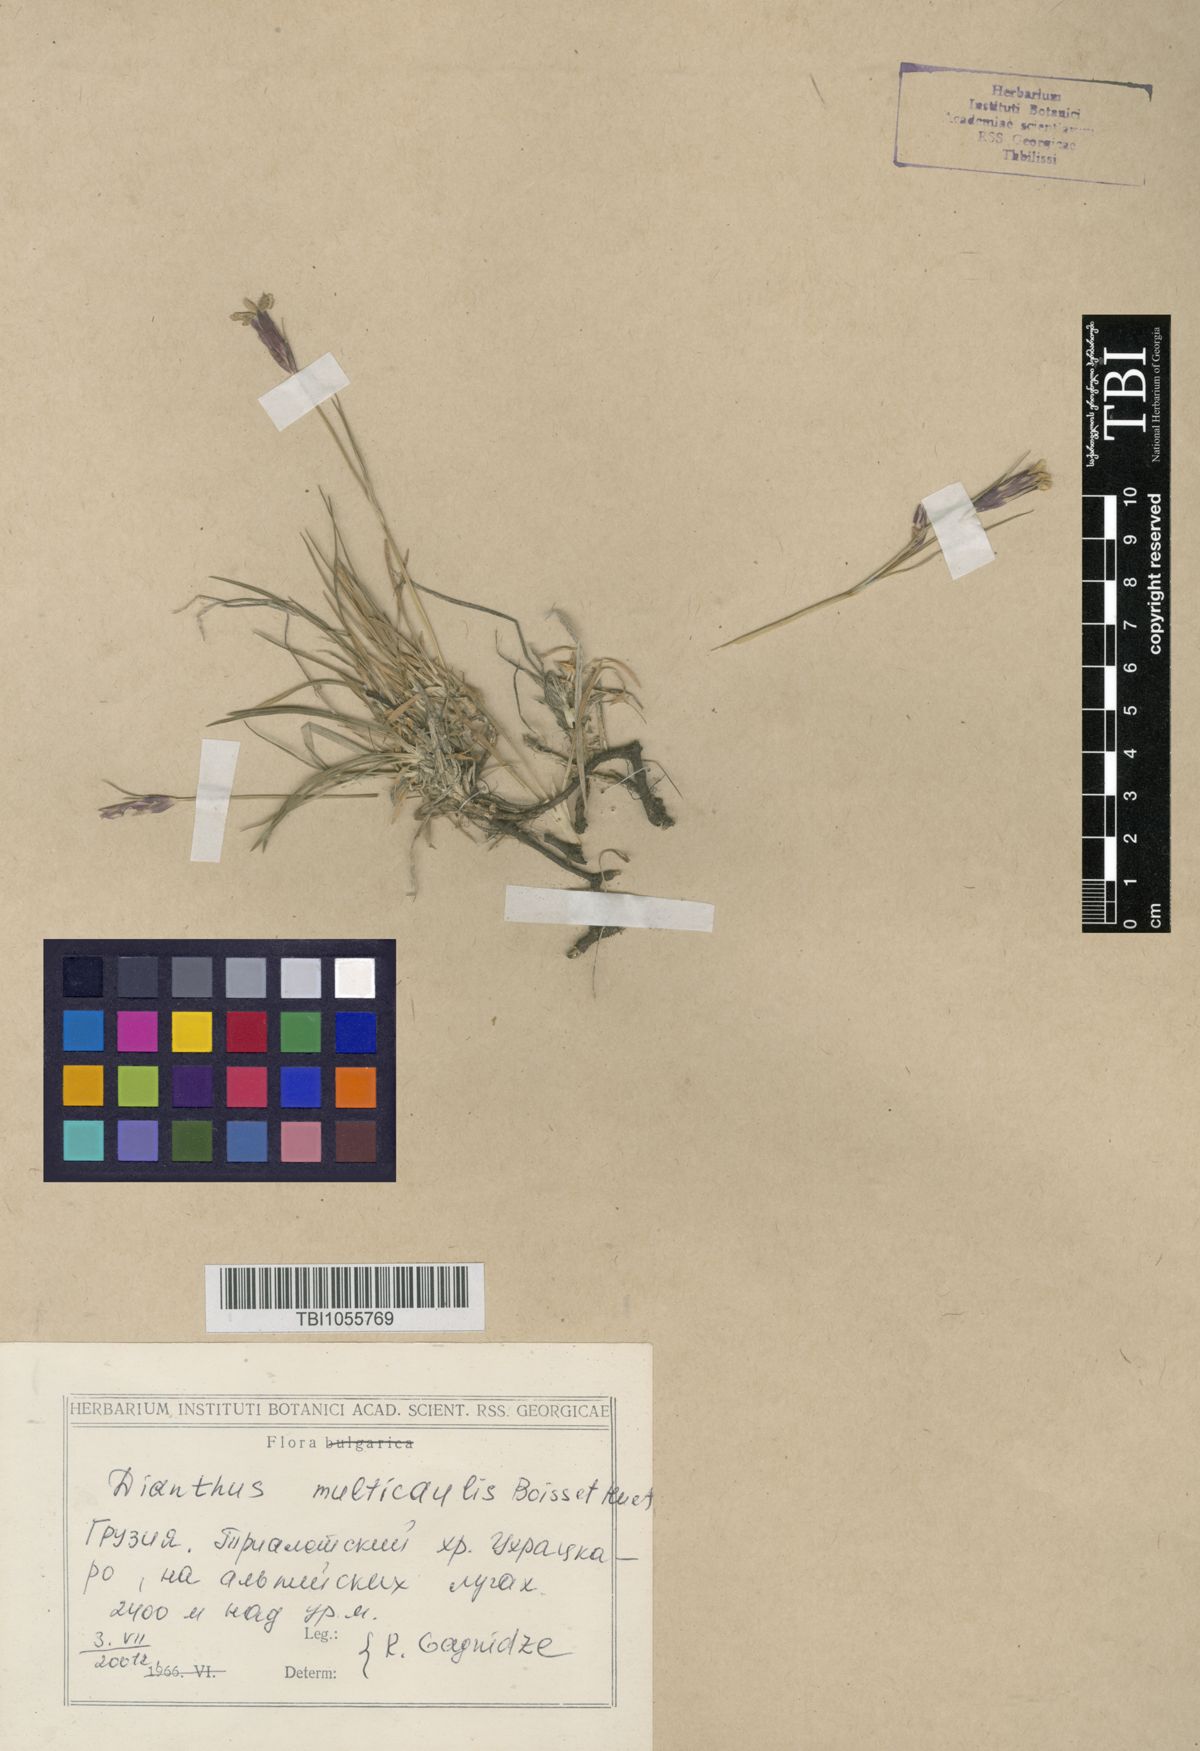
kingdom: Plantae
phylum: Tracheophyta
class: Magnoliopsida
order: Caryophyllales
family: Caryophyllaceae
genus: Dianthus
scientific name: Dianthus cretaceus
